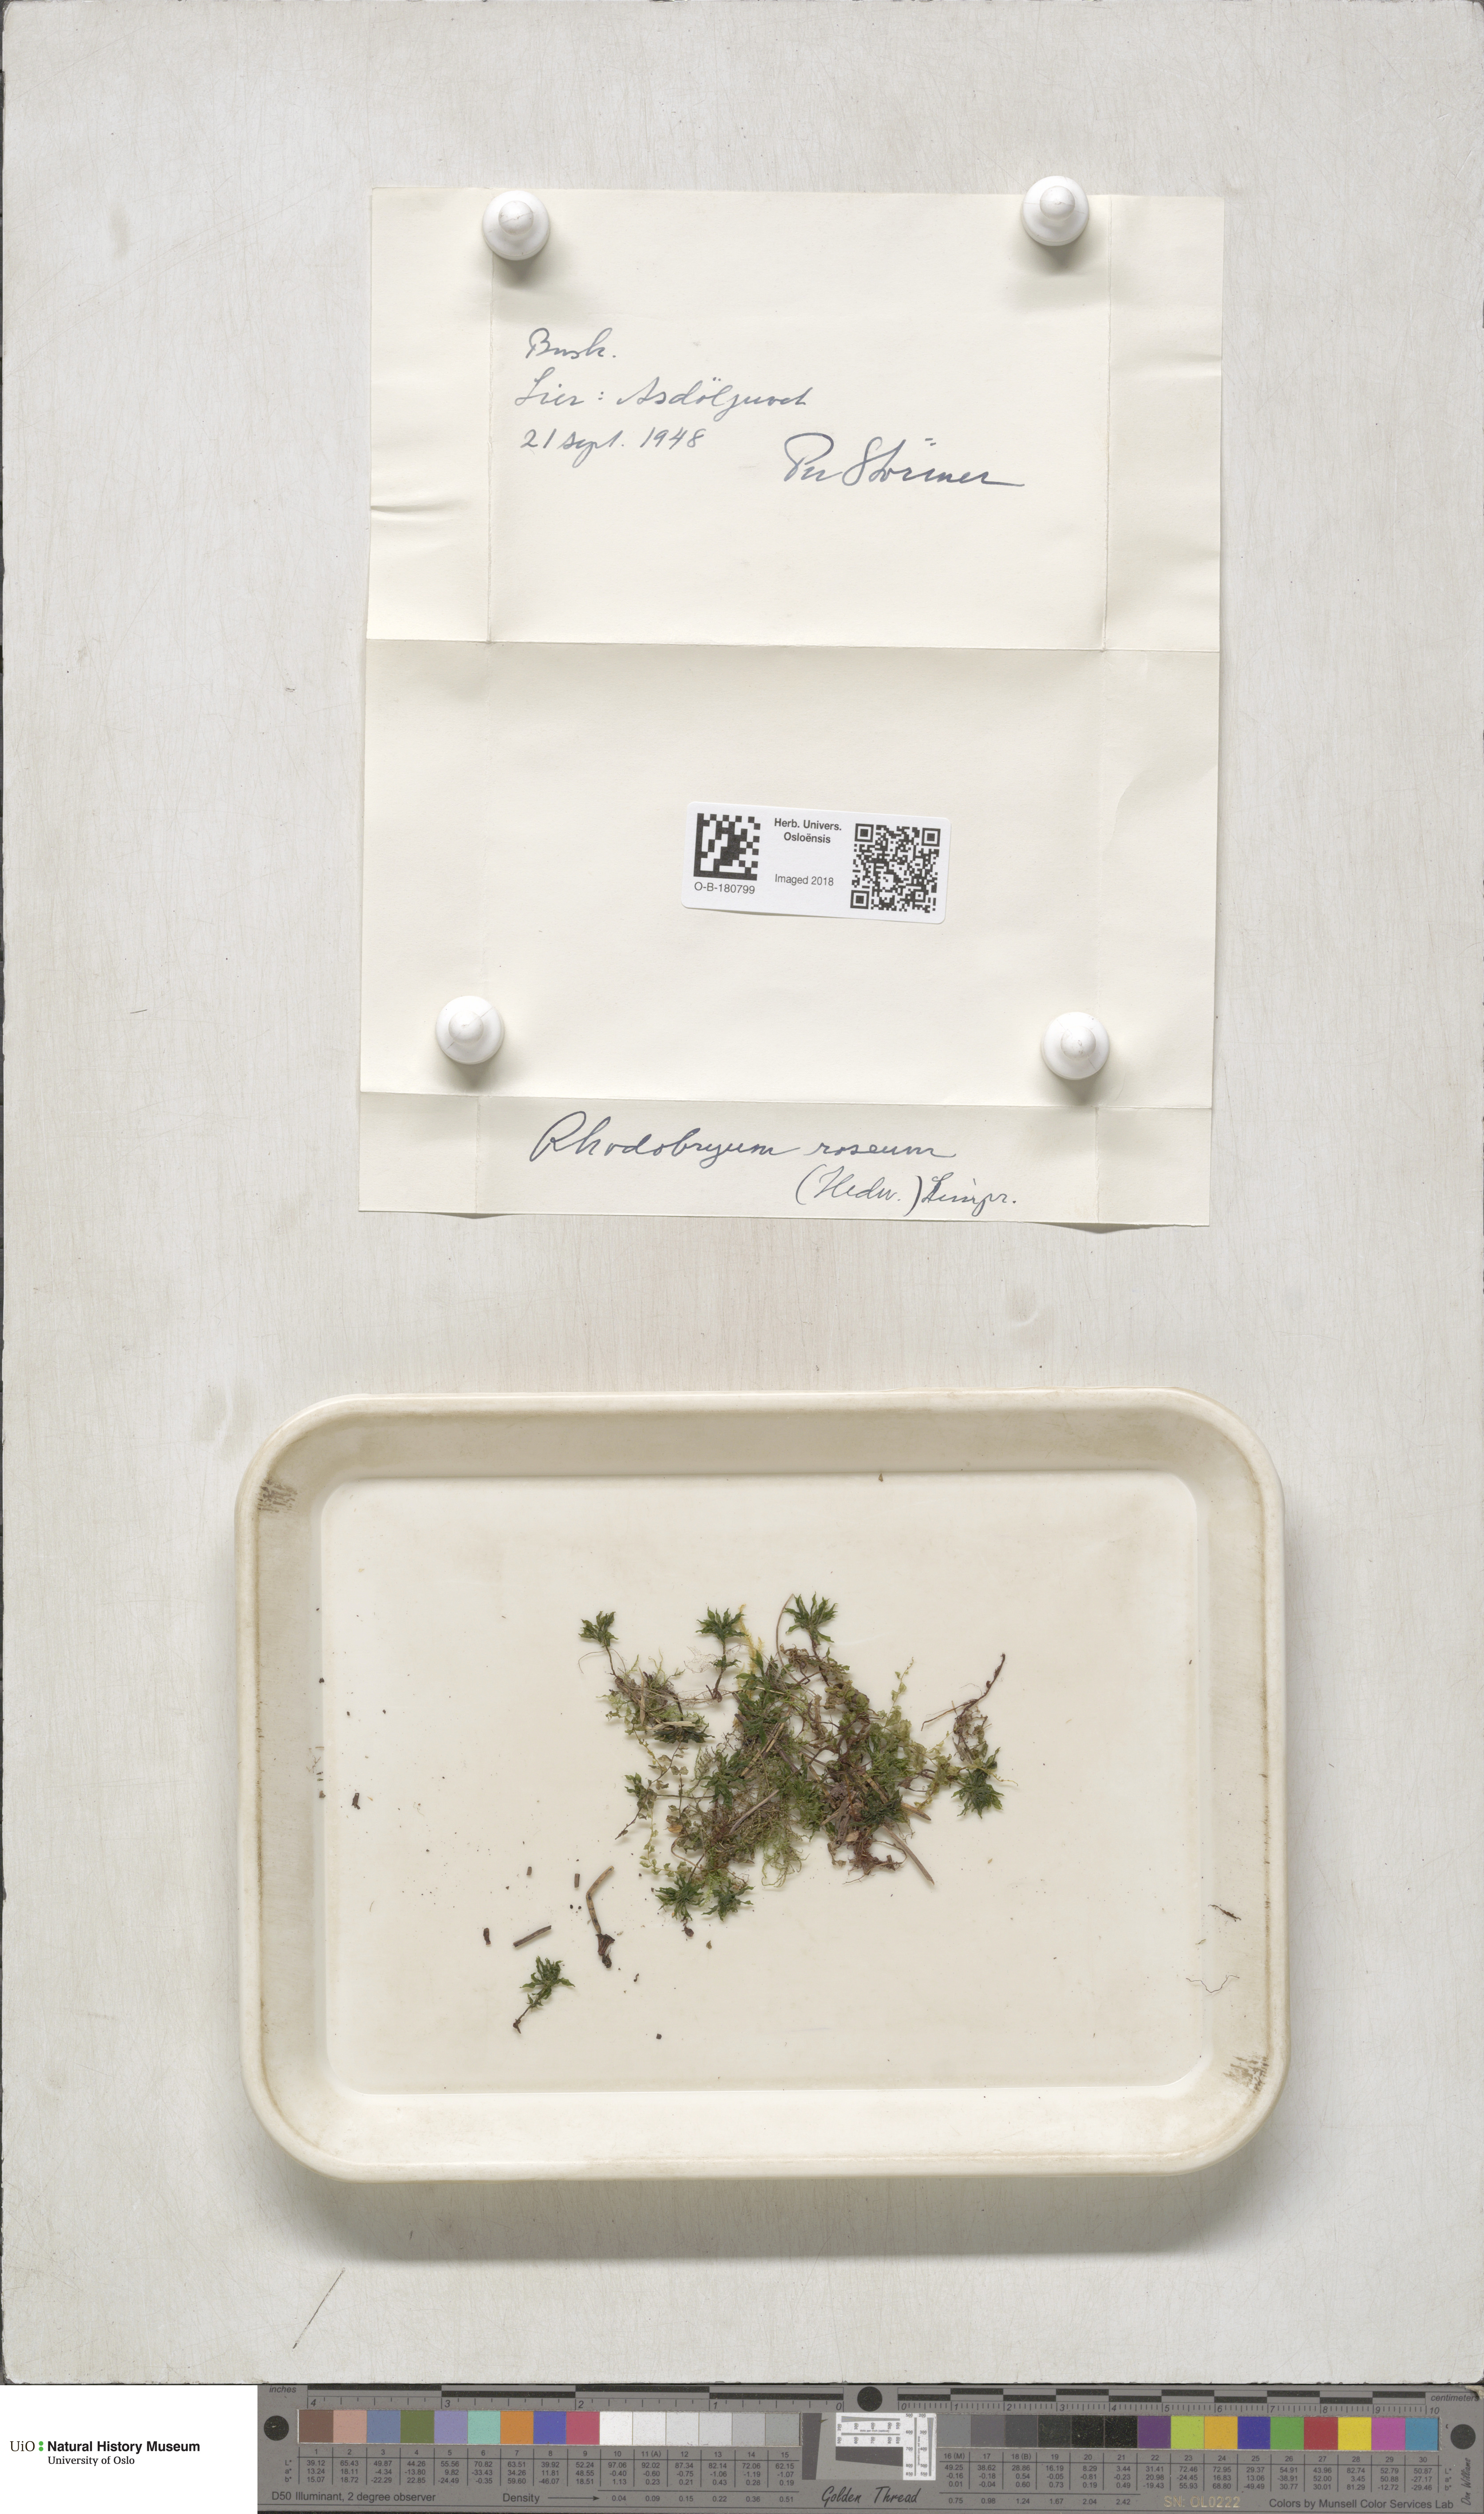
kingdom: Plantae
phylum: Bryophyta
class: Bryopsida
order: Bryales
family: Bryaceae
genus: Rhodobryum
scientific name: Rhodobryum roseum
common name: Rose-moss
